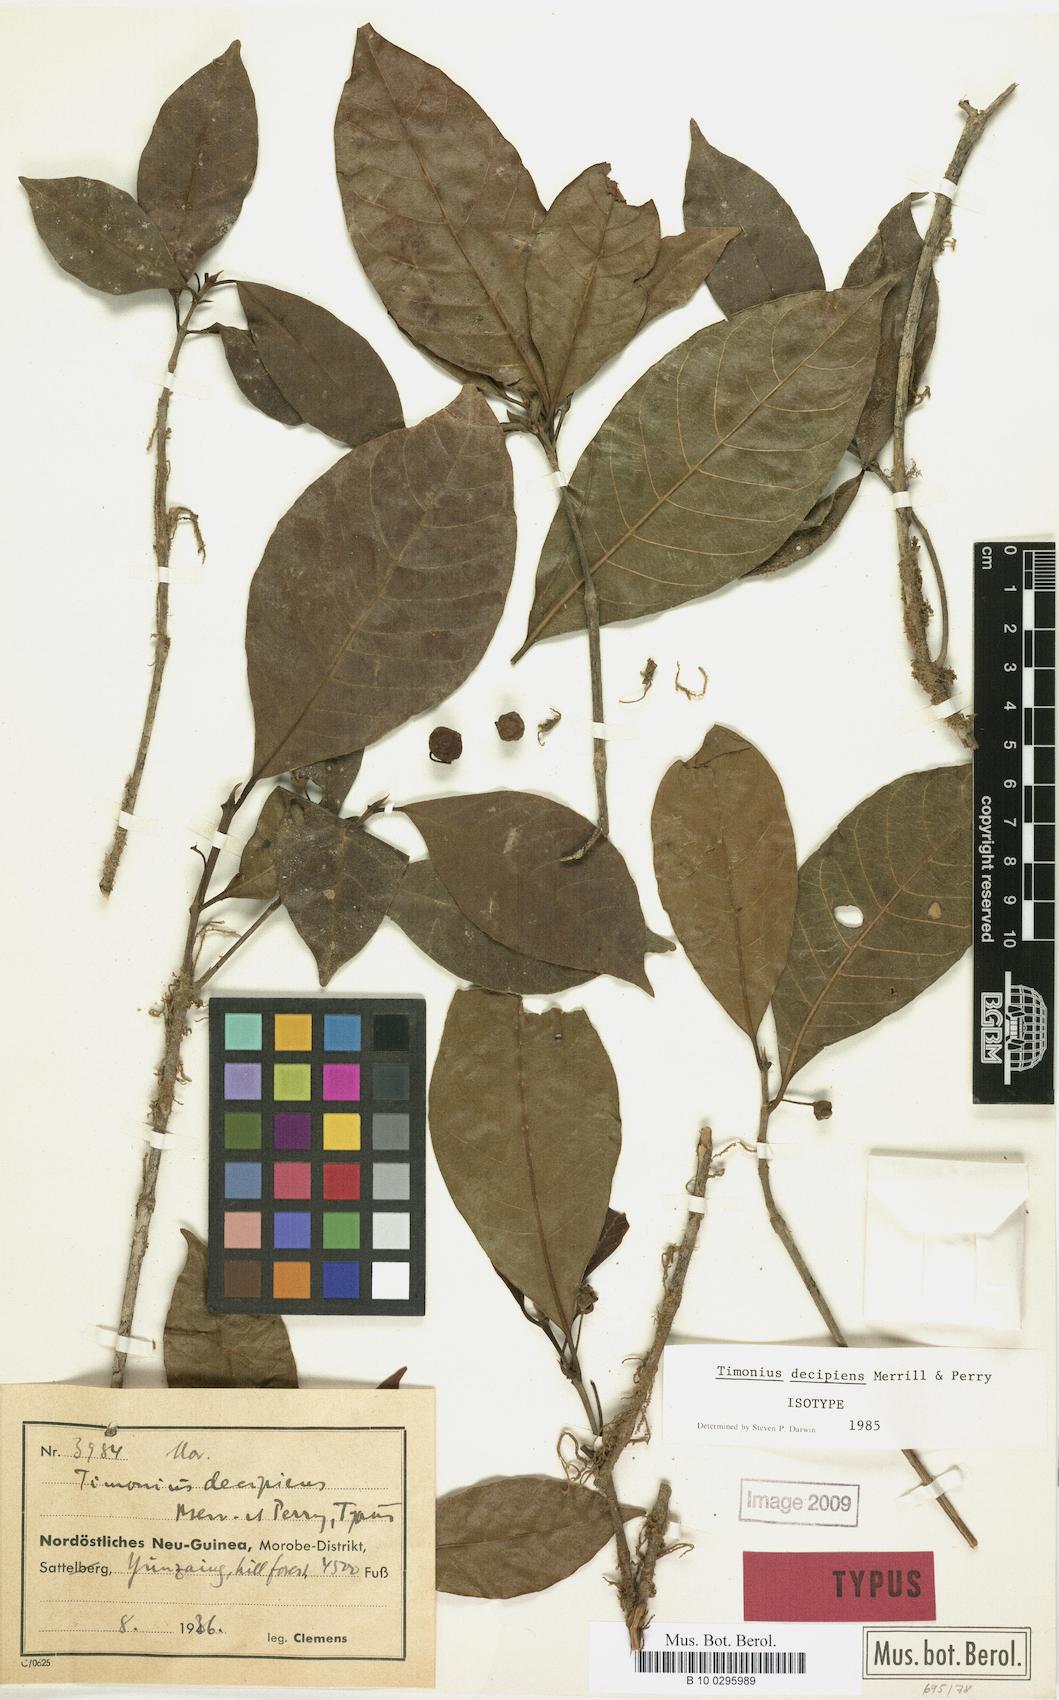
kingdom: Plantae
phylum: Tracheophyta
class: Magnoliopsida
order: Gentianales
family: Rubiaceae
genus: Timonius
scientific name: Timonius decipiens
